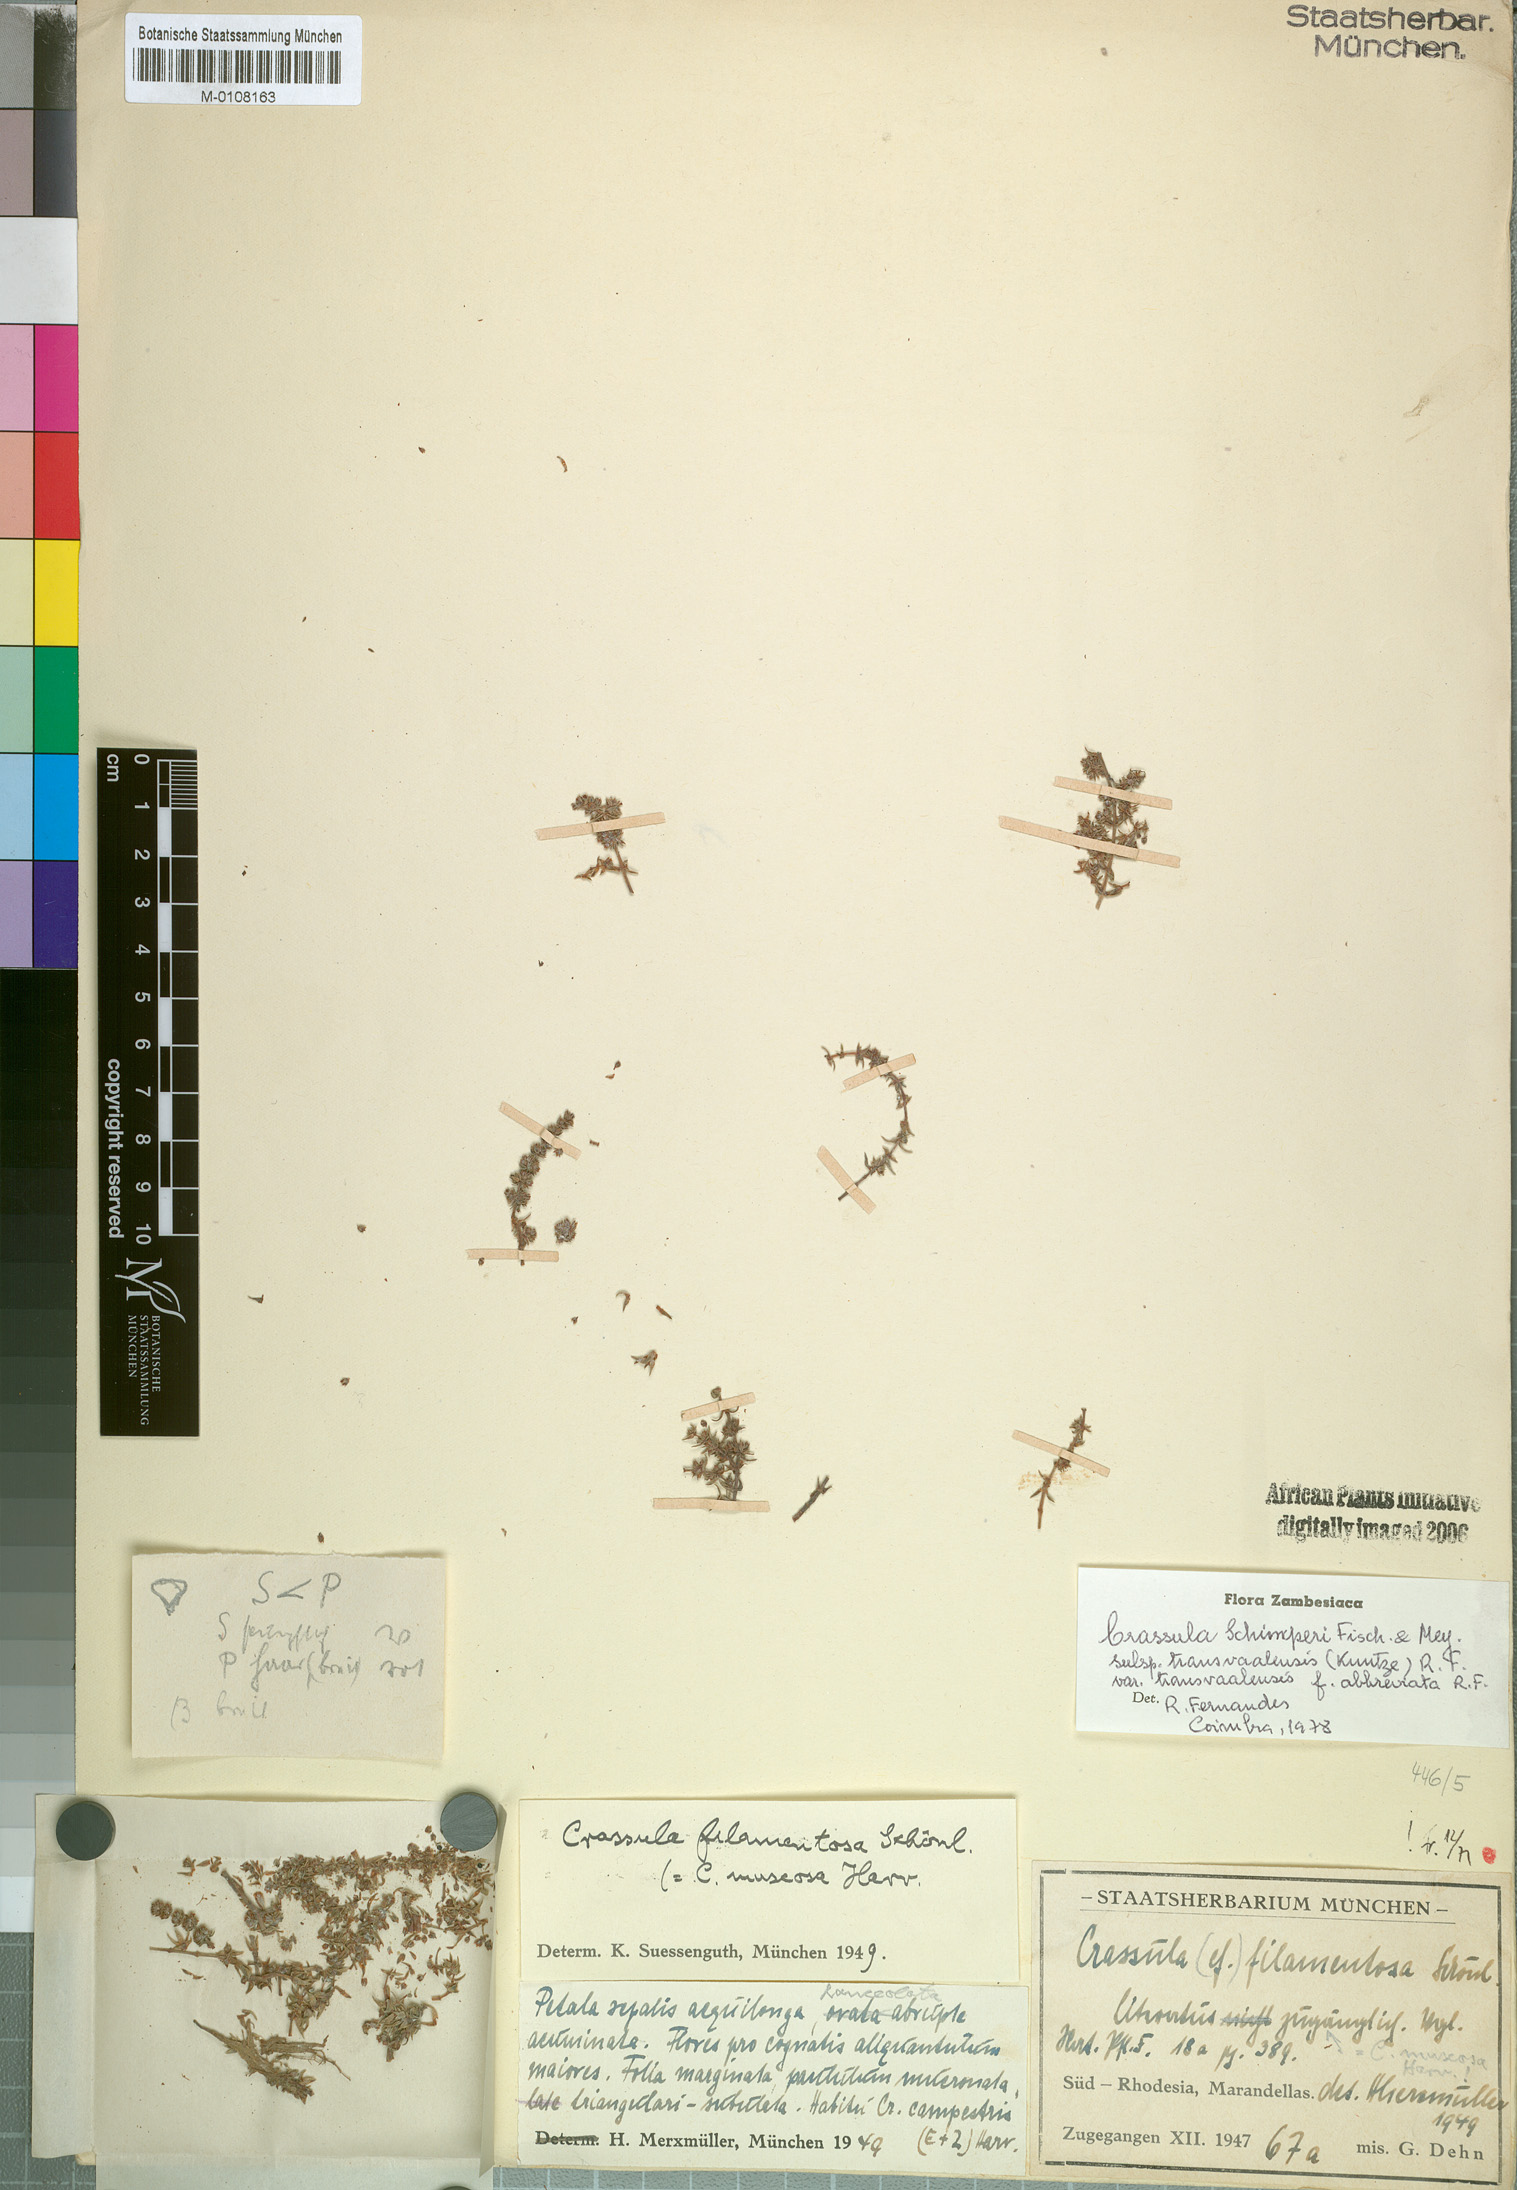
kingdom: Plantae
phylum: Tracheophyta
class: Magnoliopsida
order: Saxifragales
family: Crassulaceae
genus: Crassula
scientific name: Crassula schimperi
